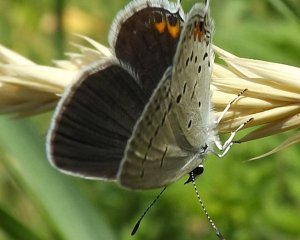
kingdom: Animalia
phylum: Arthropoda
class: Insecta
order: Lepidoptera
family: Lycaenidae
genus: Elkalyce
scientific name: Elkalyce comyntas
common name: Eastern Tailed-Blue
